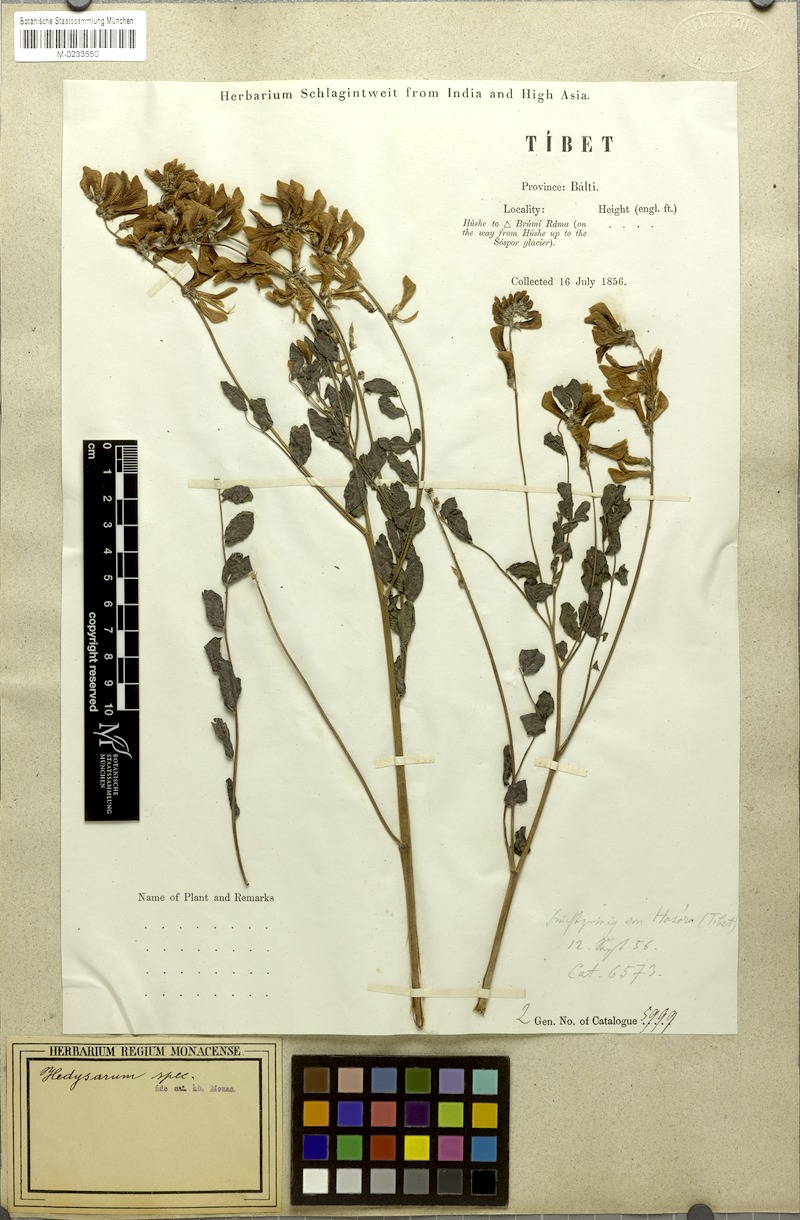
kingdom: Plantae
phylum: Tracheophyta
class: Magnoliopsida
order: Fabales
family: Fabaceae
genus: Hedysarum
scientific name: Hedysarum falconeri
